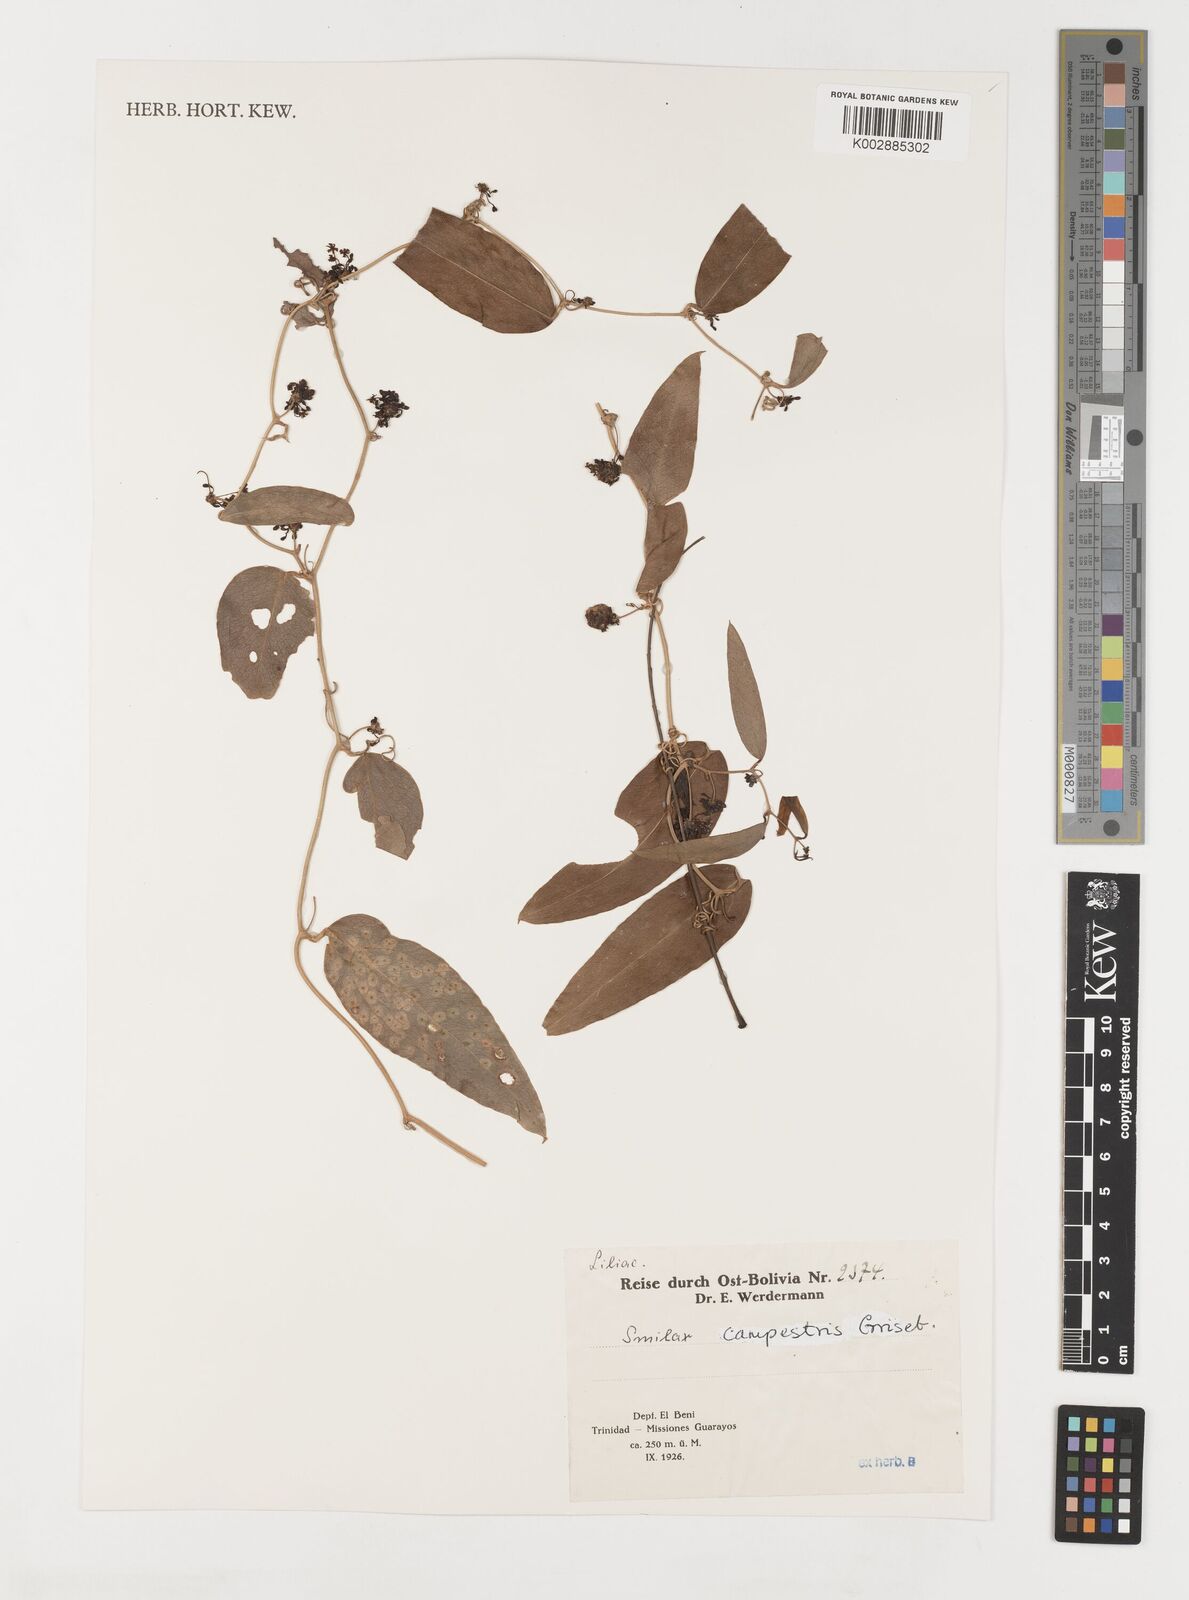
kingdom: Plantae
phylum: Tracheophyta
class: Liliopsida
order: Liliales
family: Smilacaceae
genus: Smilax
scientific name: Smilax campestris
